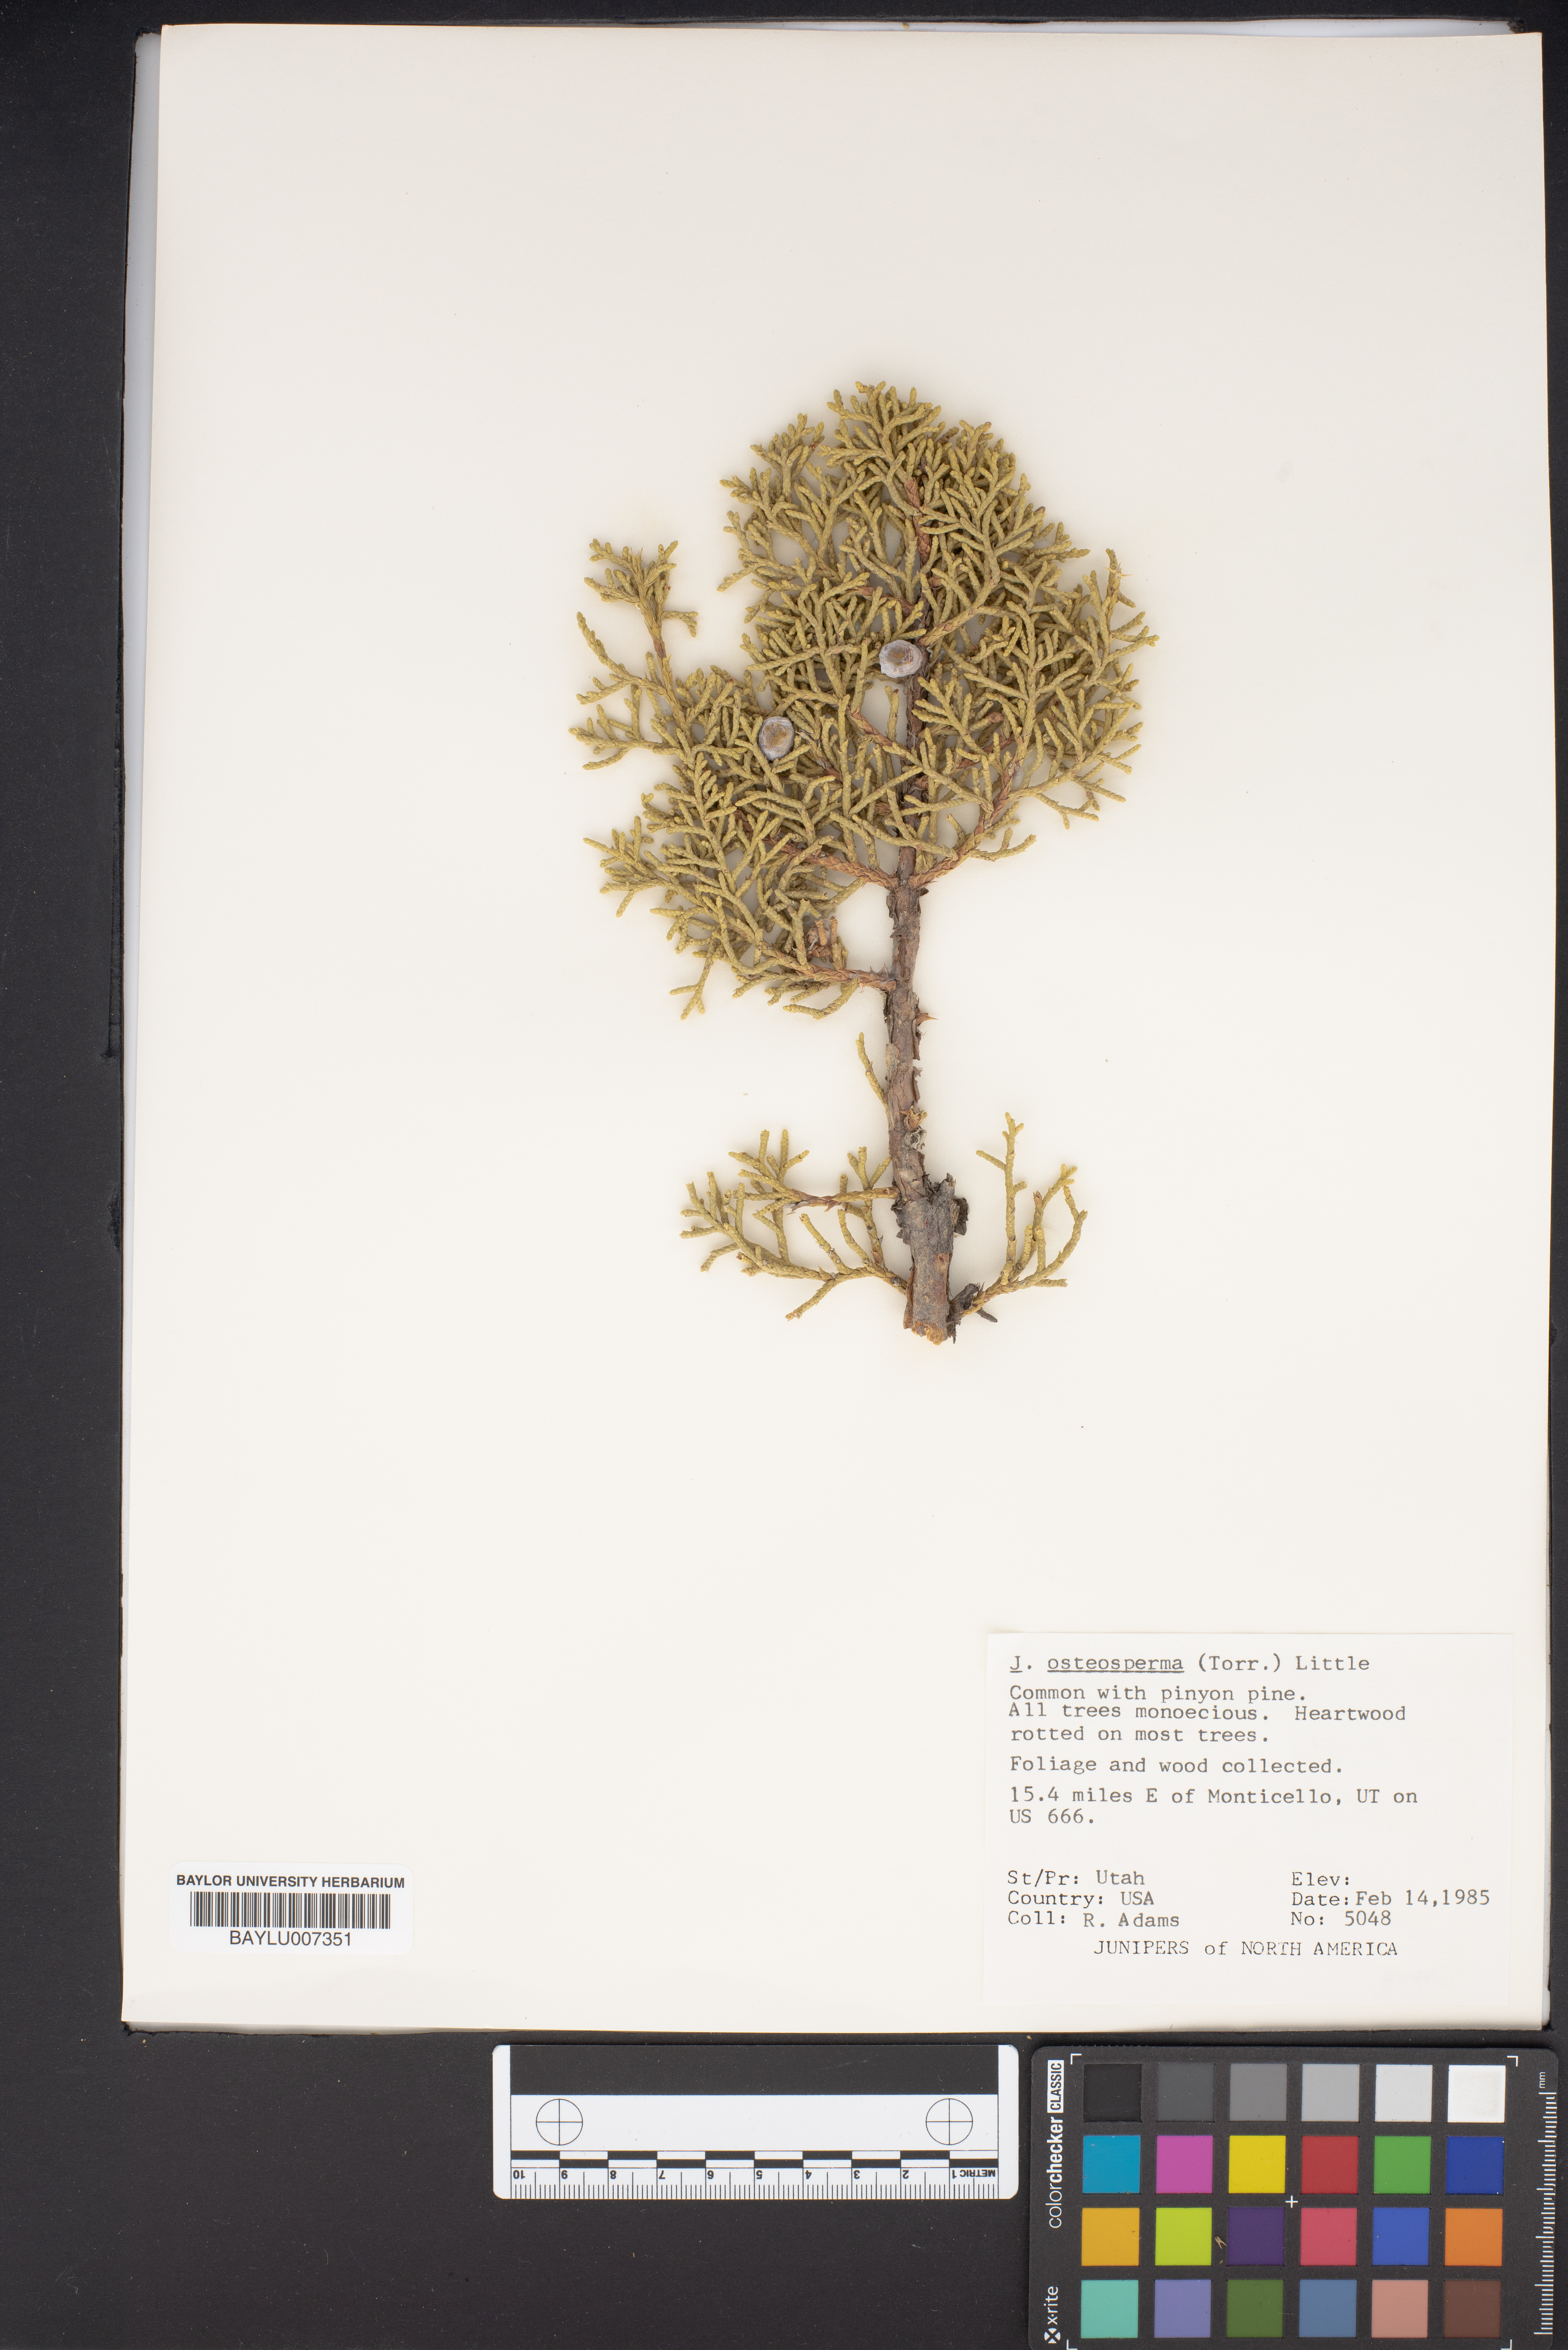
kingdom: Plantae
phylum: Tracheophyta
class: Pinopsida
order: Pinales
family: Cupressaceae
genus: Juniperus
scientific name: Juniperus osteosperma
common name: Utah juniper
